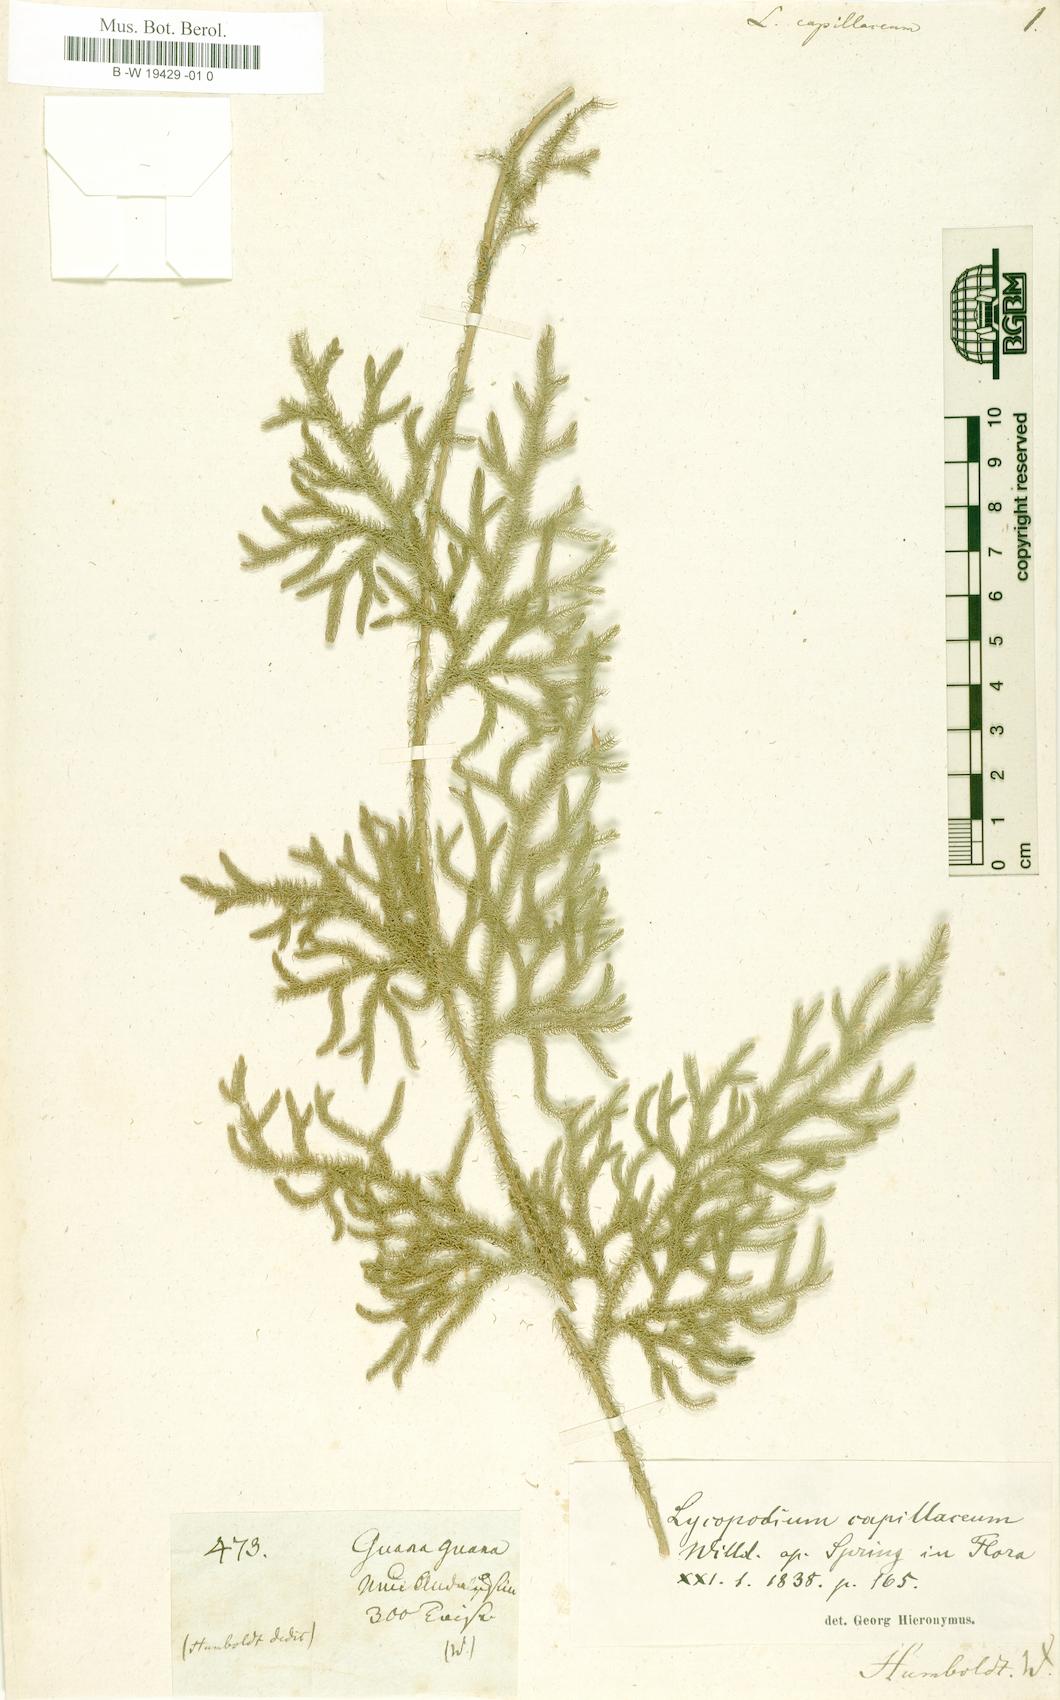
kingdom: Plantae
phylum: Tracheophyta
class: Lycopodiopsida
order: Lycopodiales
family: Lycopodiaceae
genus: Palhinhaea
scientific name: Palhinhaea cernua
